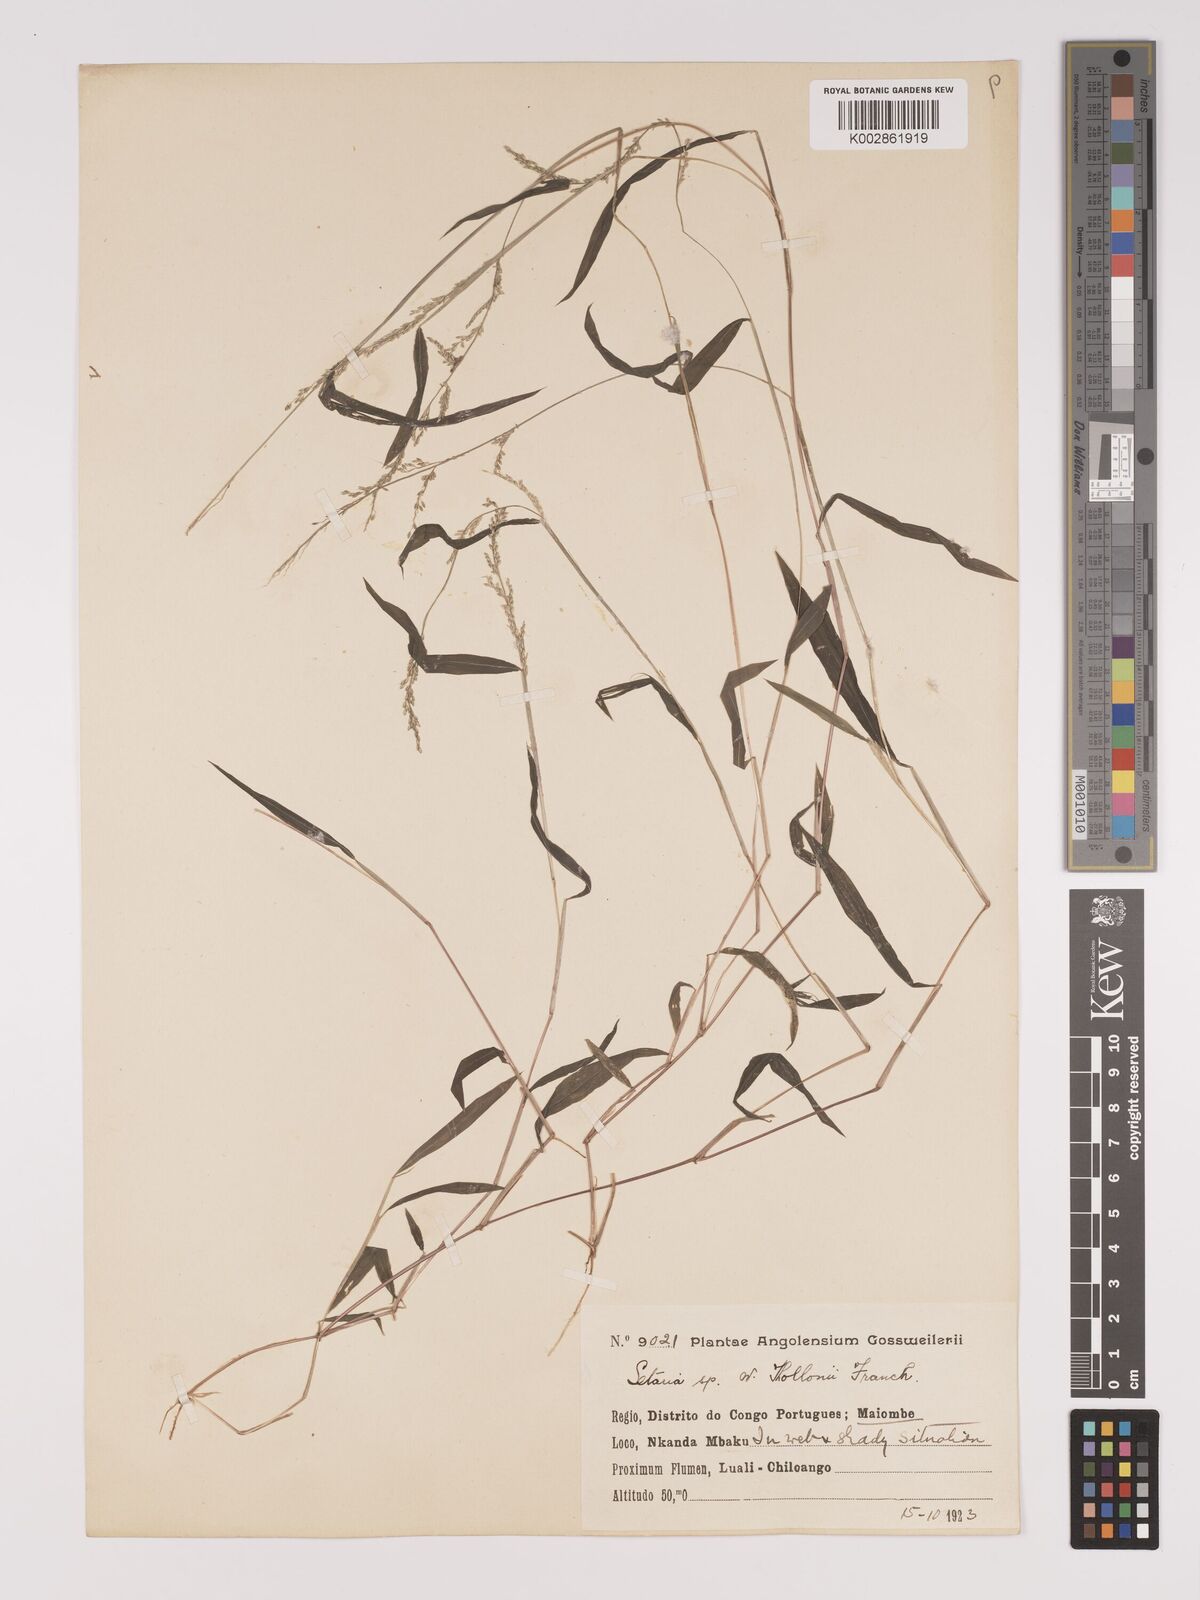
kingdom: Plantae
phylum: Tracheophyta
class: Liliopsida
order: Poales
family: Poaceae
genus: Setaria
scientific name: Setaria homonyma
